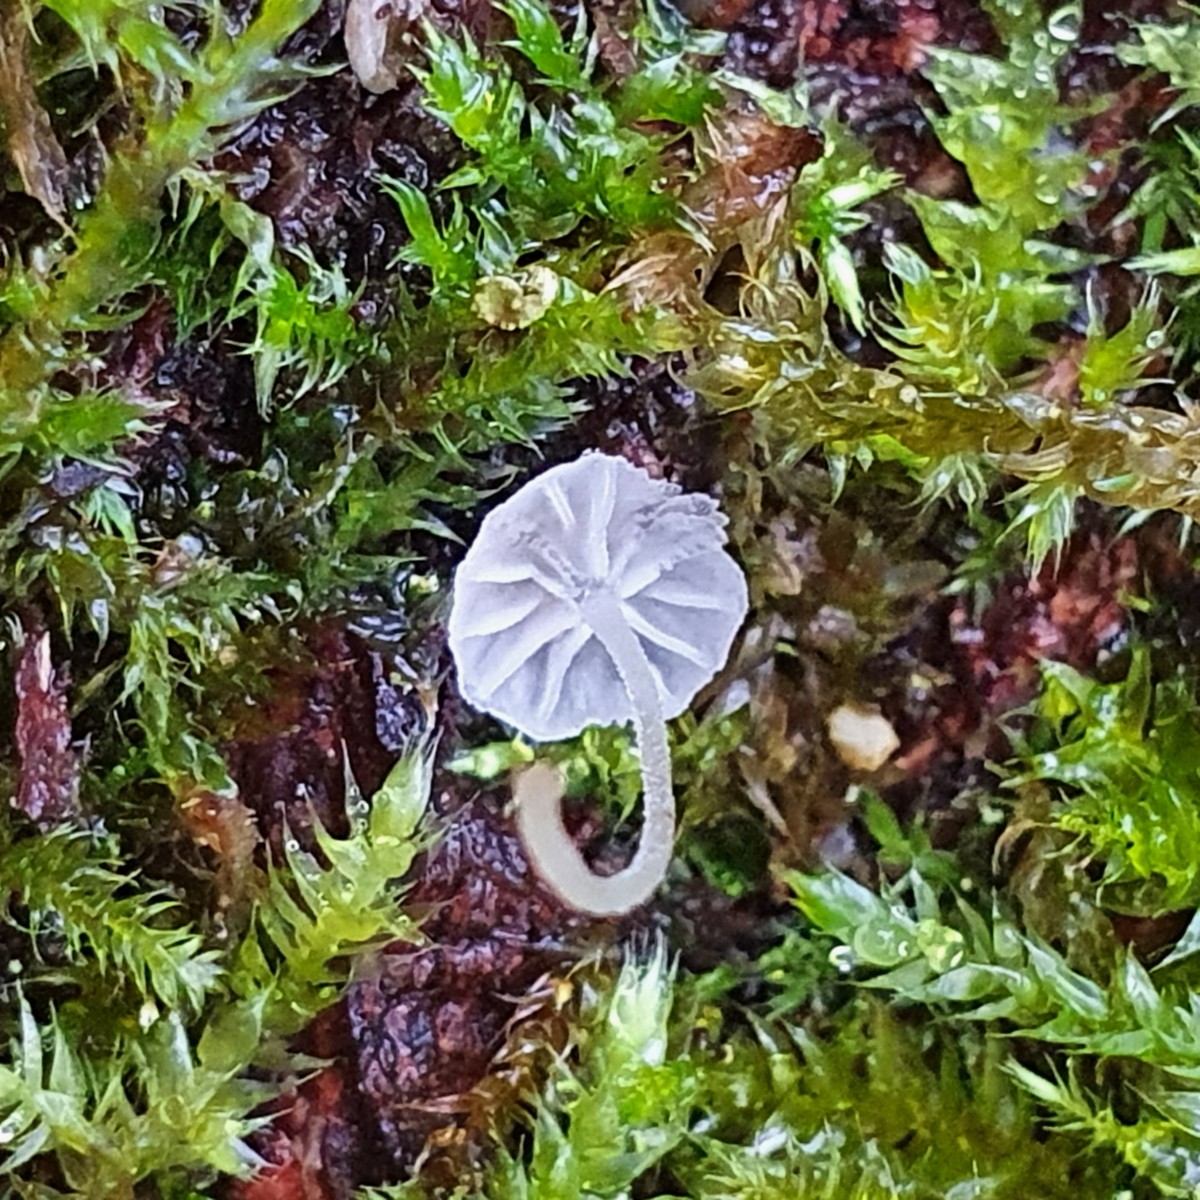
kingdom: Fungi
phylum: Basidiomycota
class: Agaricomycetes
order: Agaricales
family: Mycenaceae
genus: Mycena
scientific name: Mycena
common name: huesvamp
